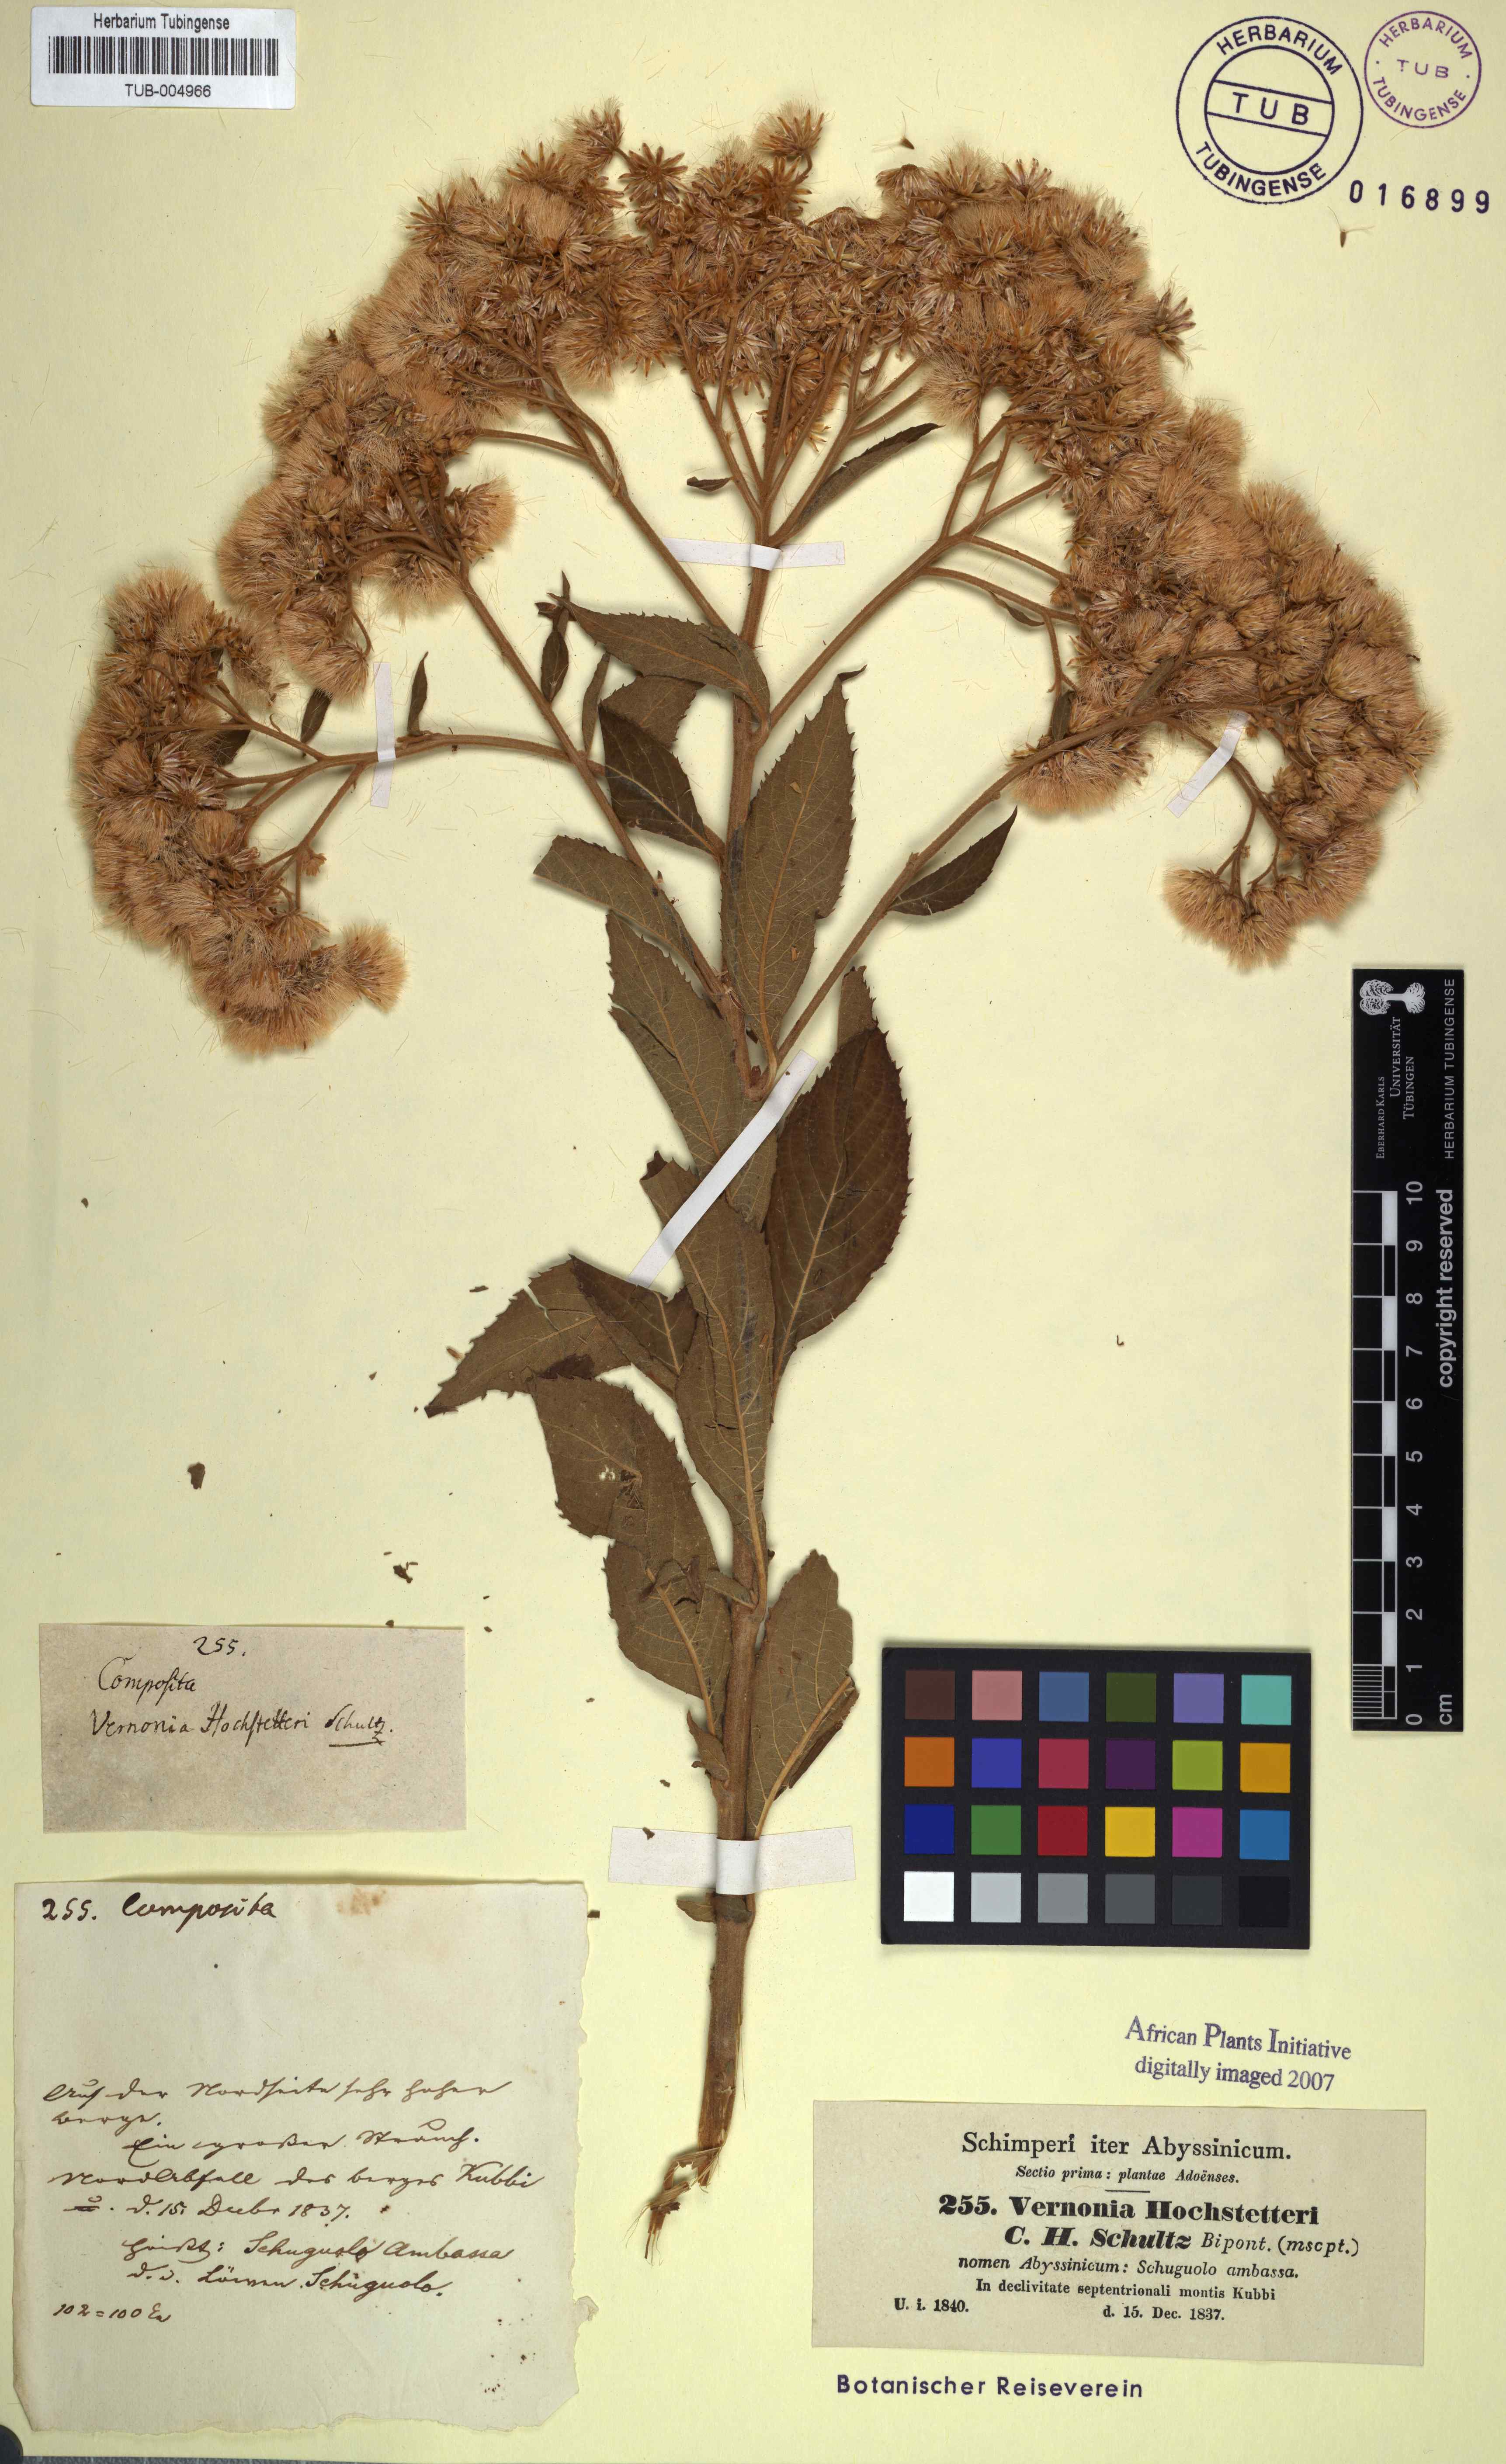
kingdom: Plantae
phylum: Tracheophyta
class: Magnoliopsida
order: Asterales
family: Asteraceae
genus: Vernonia
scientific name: Vernonia hochstetteri
